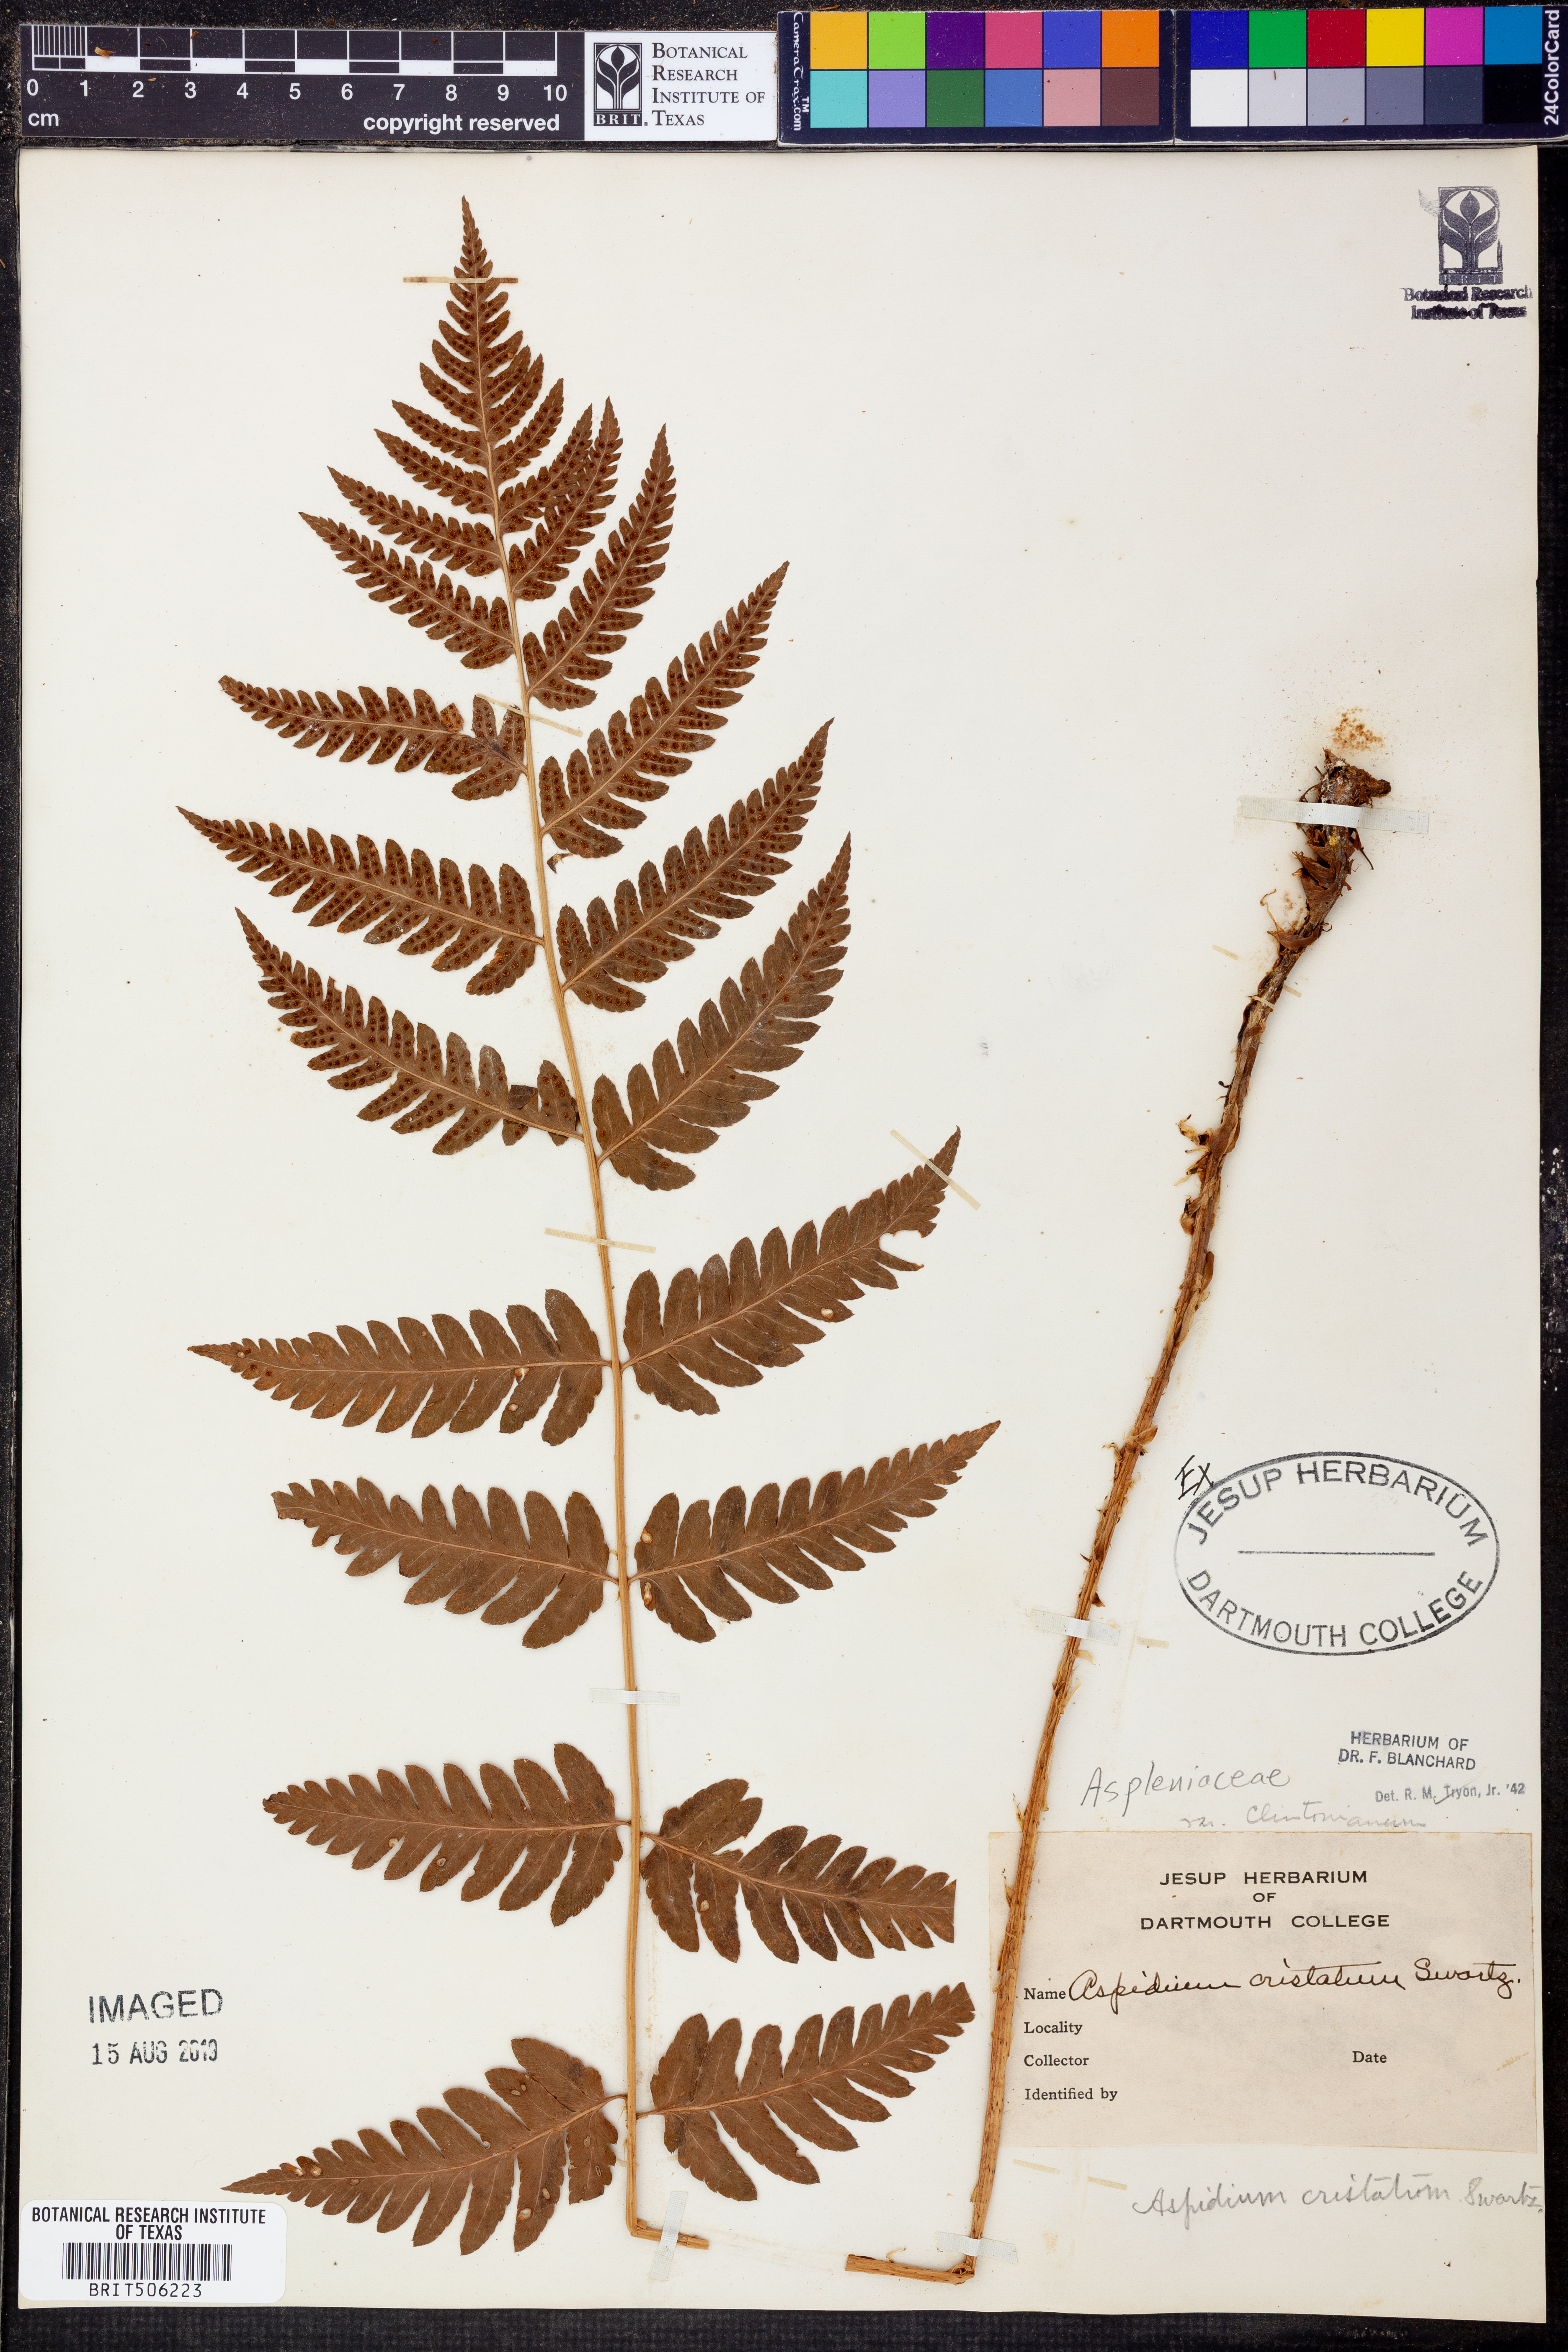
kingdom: Plantae
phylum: Tracheophyta
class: Polypodiopsida
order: Polypodiales
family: Dryopteridaceae
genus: Dryopteris
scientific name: Dryopteris clintoniana
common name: Clinton's wood fern
